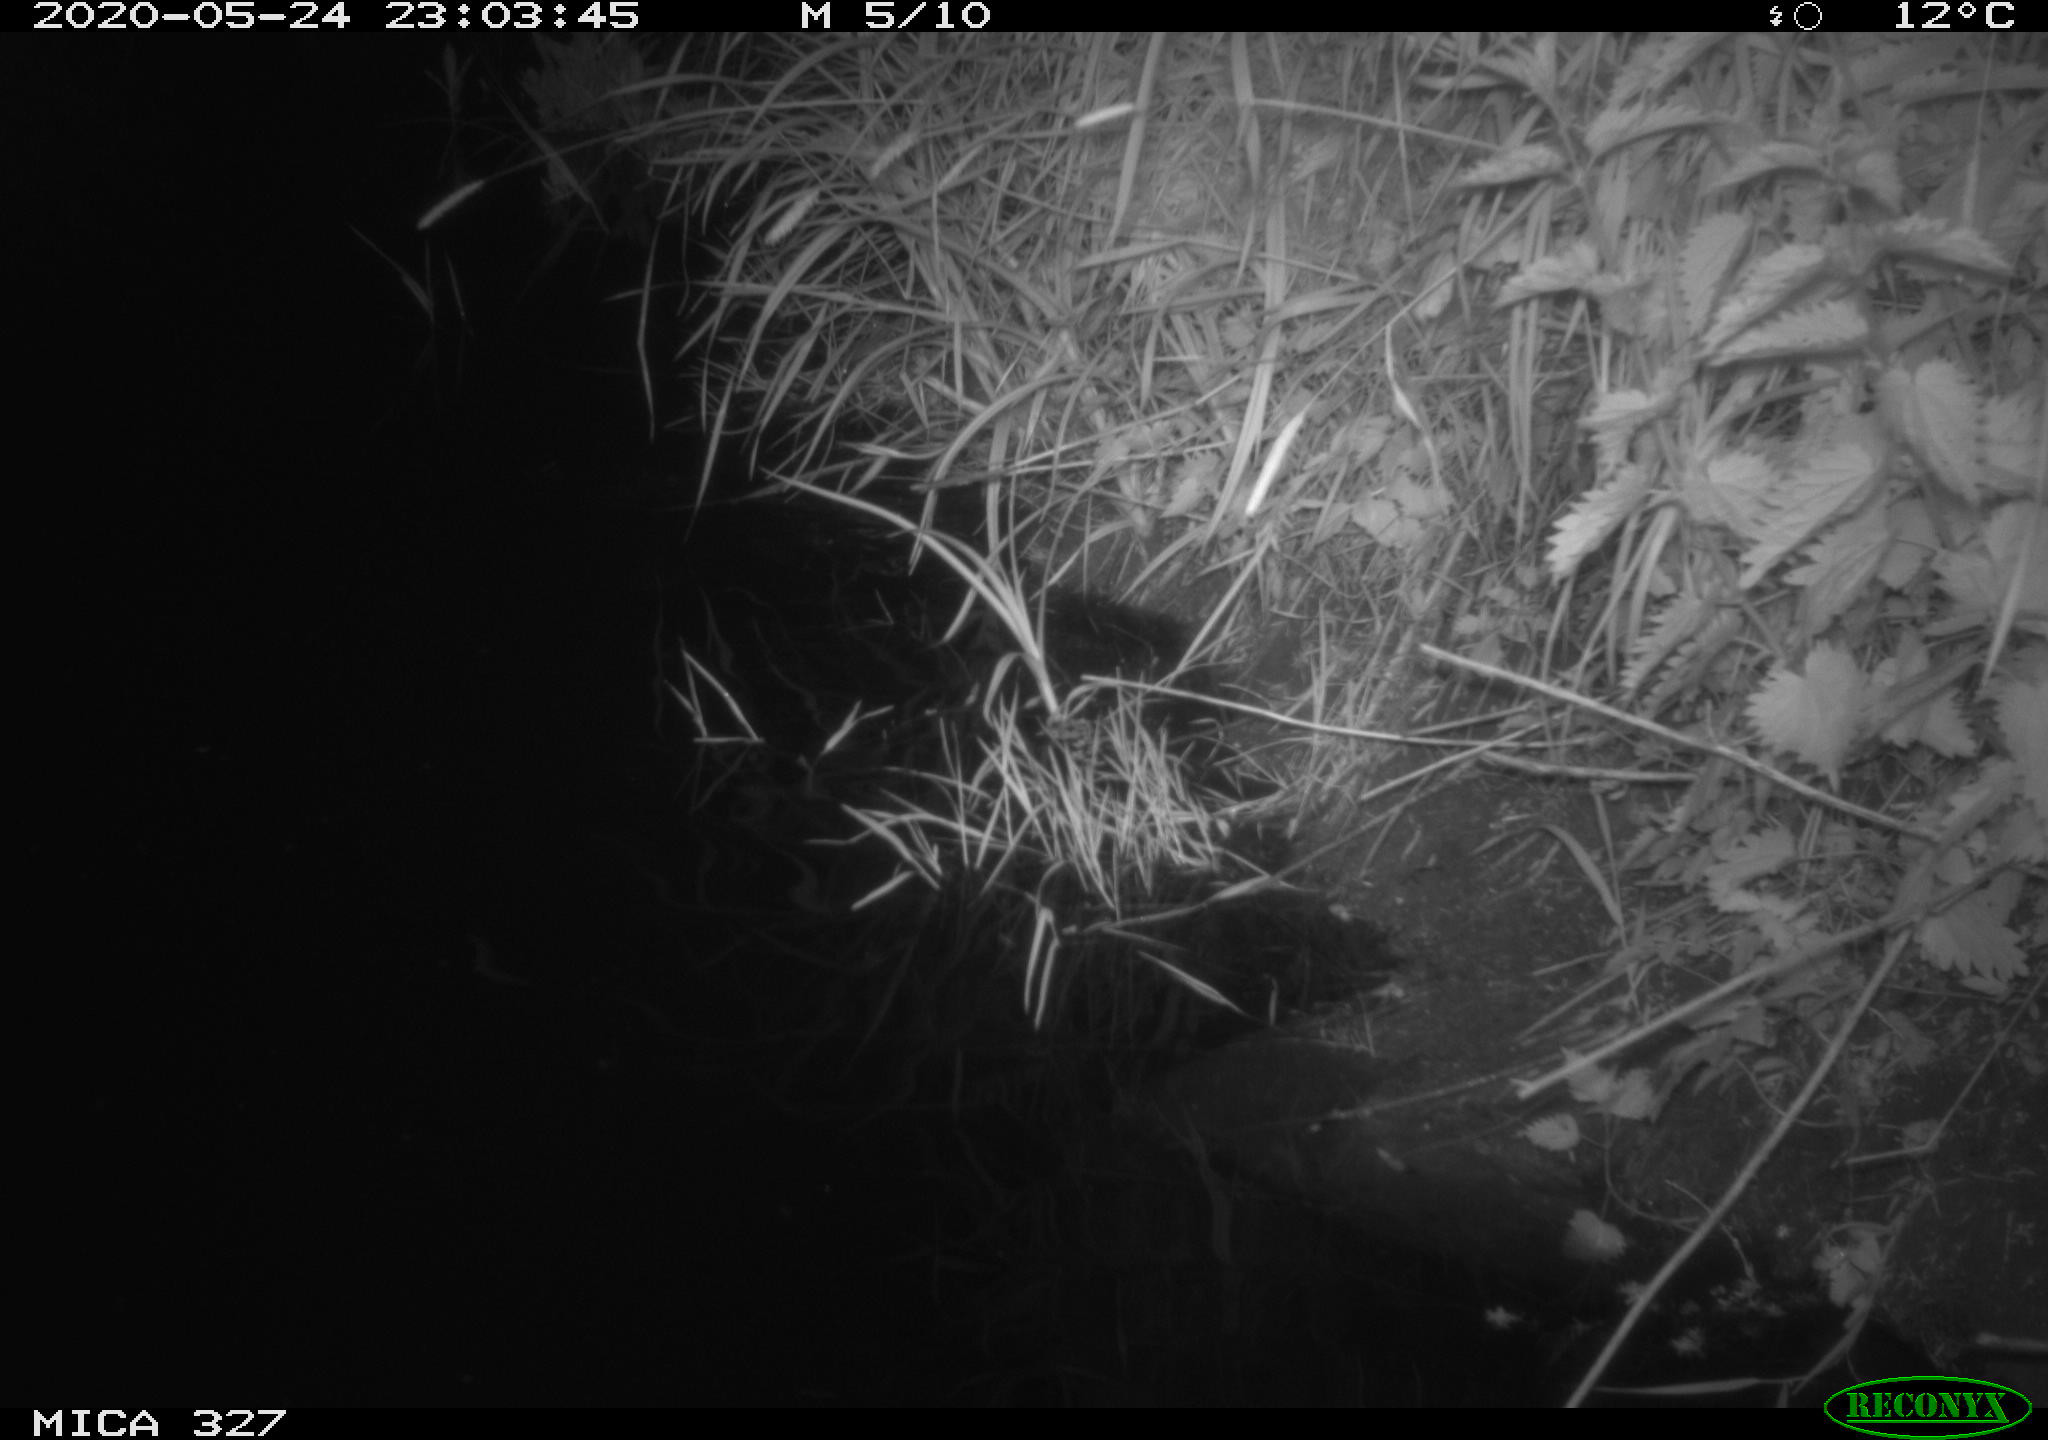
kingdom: Animalia
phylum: Chordata
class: Mammalia
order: Rodentia
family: Muridae
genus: Rattus
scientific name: Rattus norvegicus
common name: Brown rat
